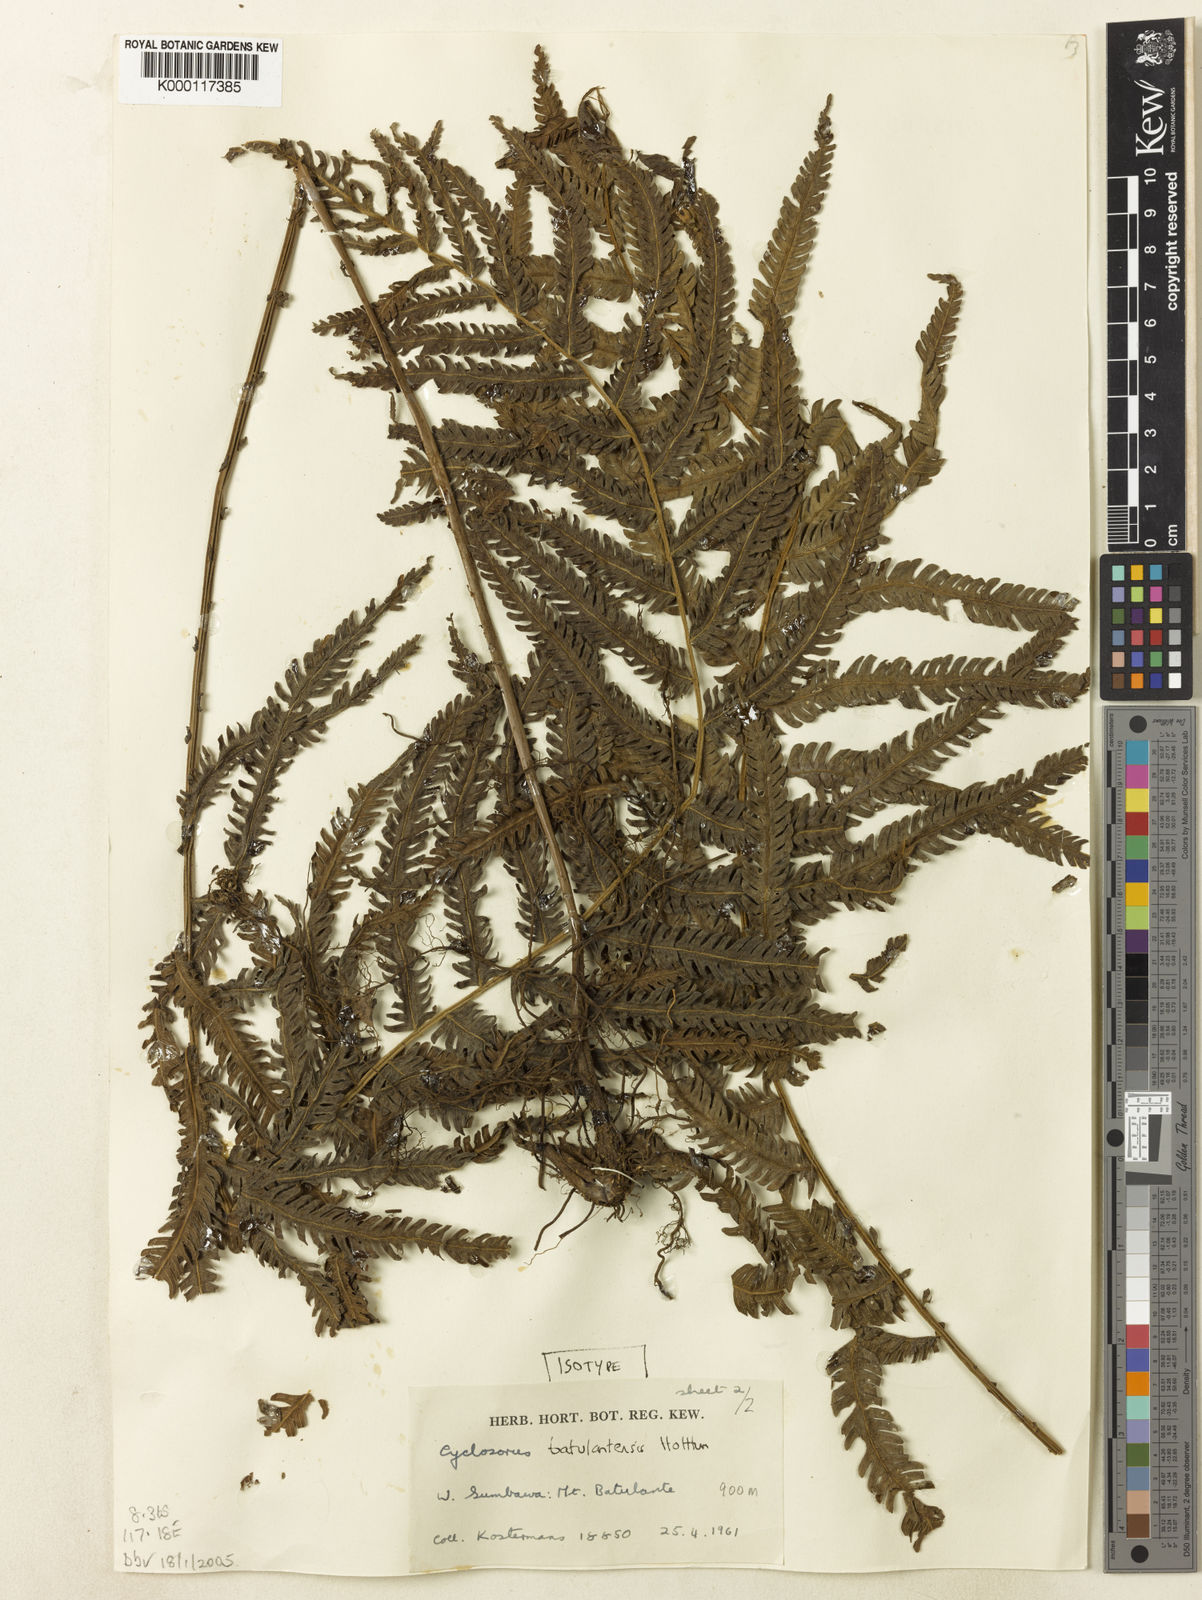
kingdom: Plantae
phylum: Tracheophyta
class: Polypodiopsida
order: Polypodiales
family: Thelypteridaceae
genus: Sphaerostephanos
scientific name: Sphaerostephanos batulantensis
